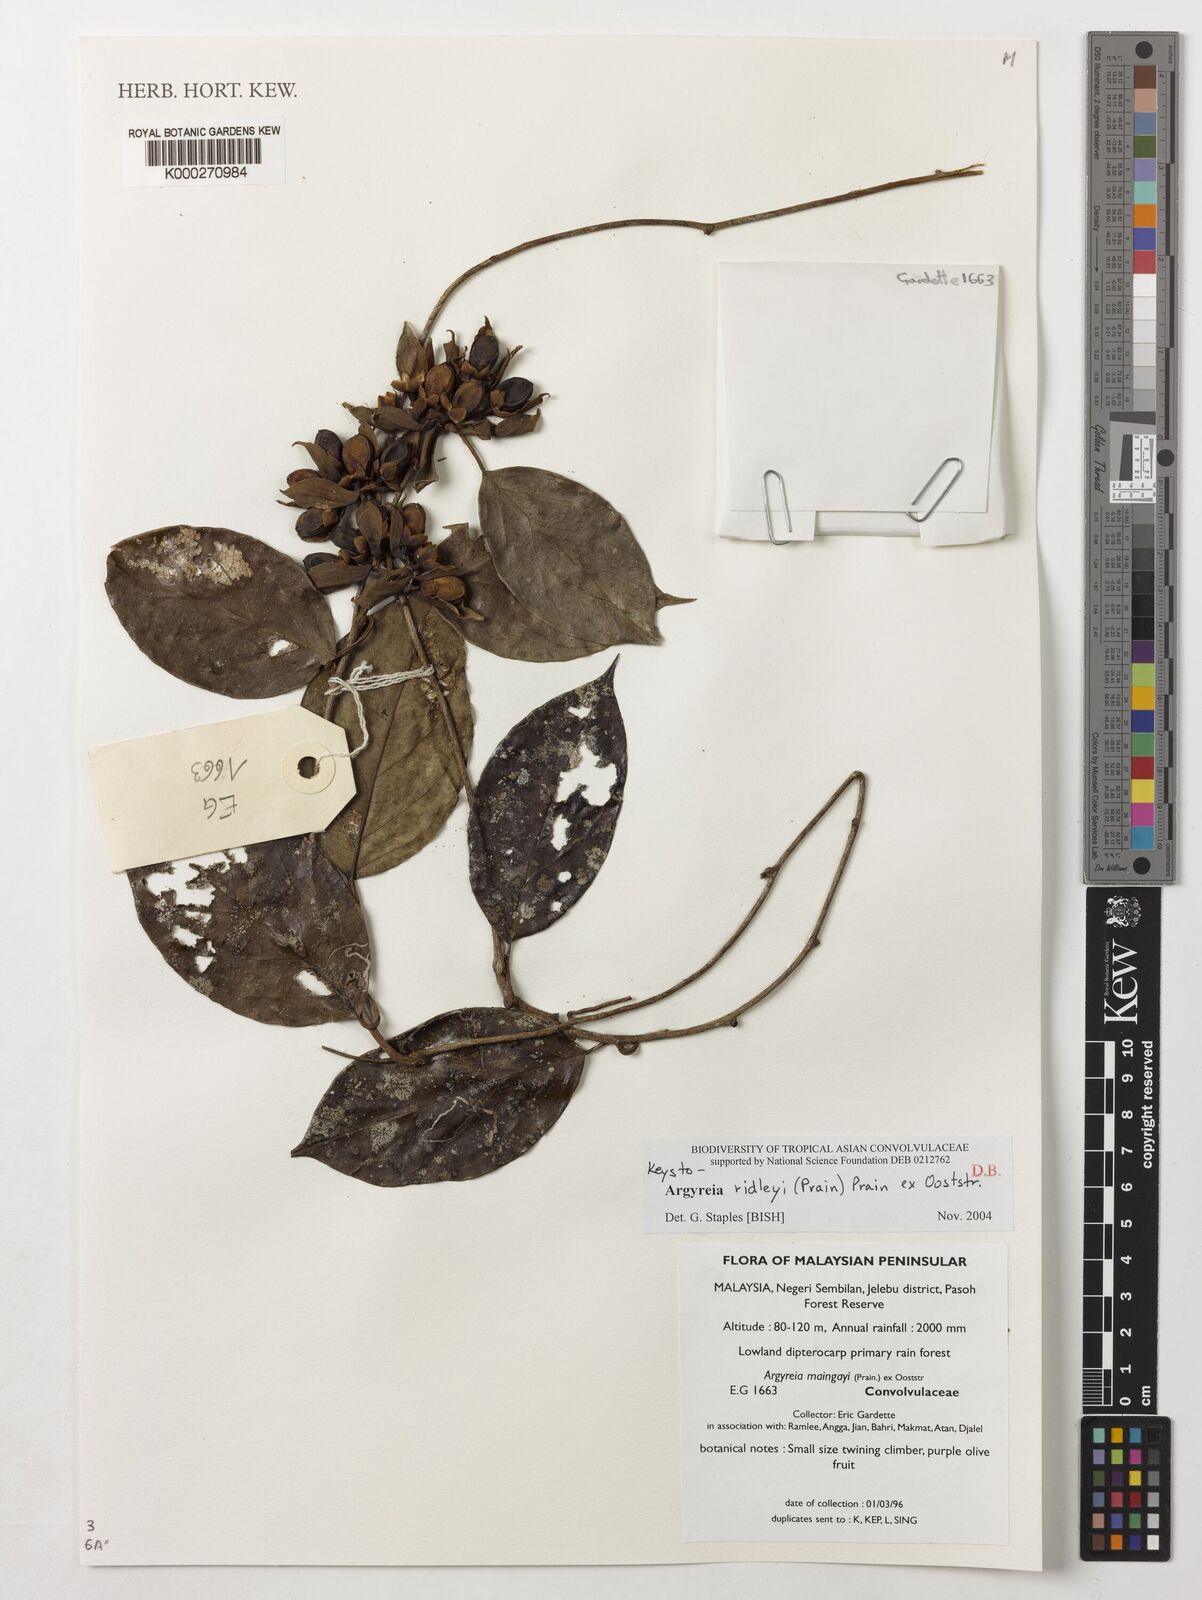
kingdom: Plantae
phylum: Tracheophyta
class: Magnoliopsida
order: Solanales
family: Convolvulaceae
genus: Argyreia
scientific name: Argyreia ridleyi
